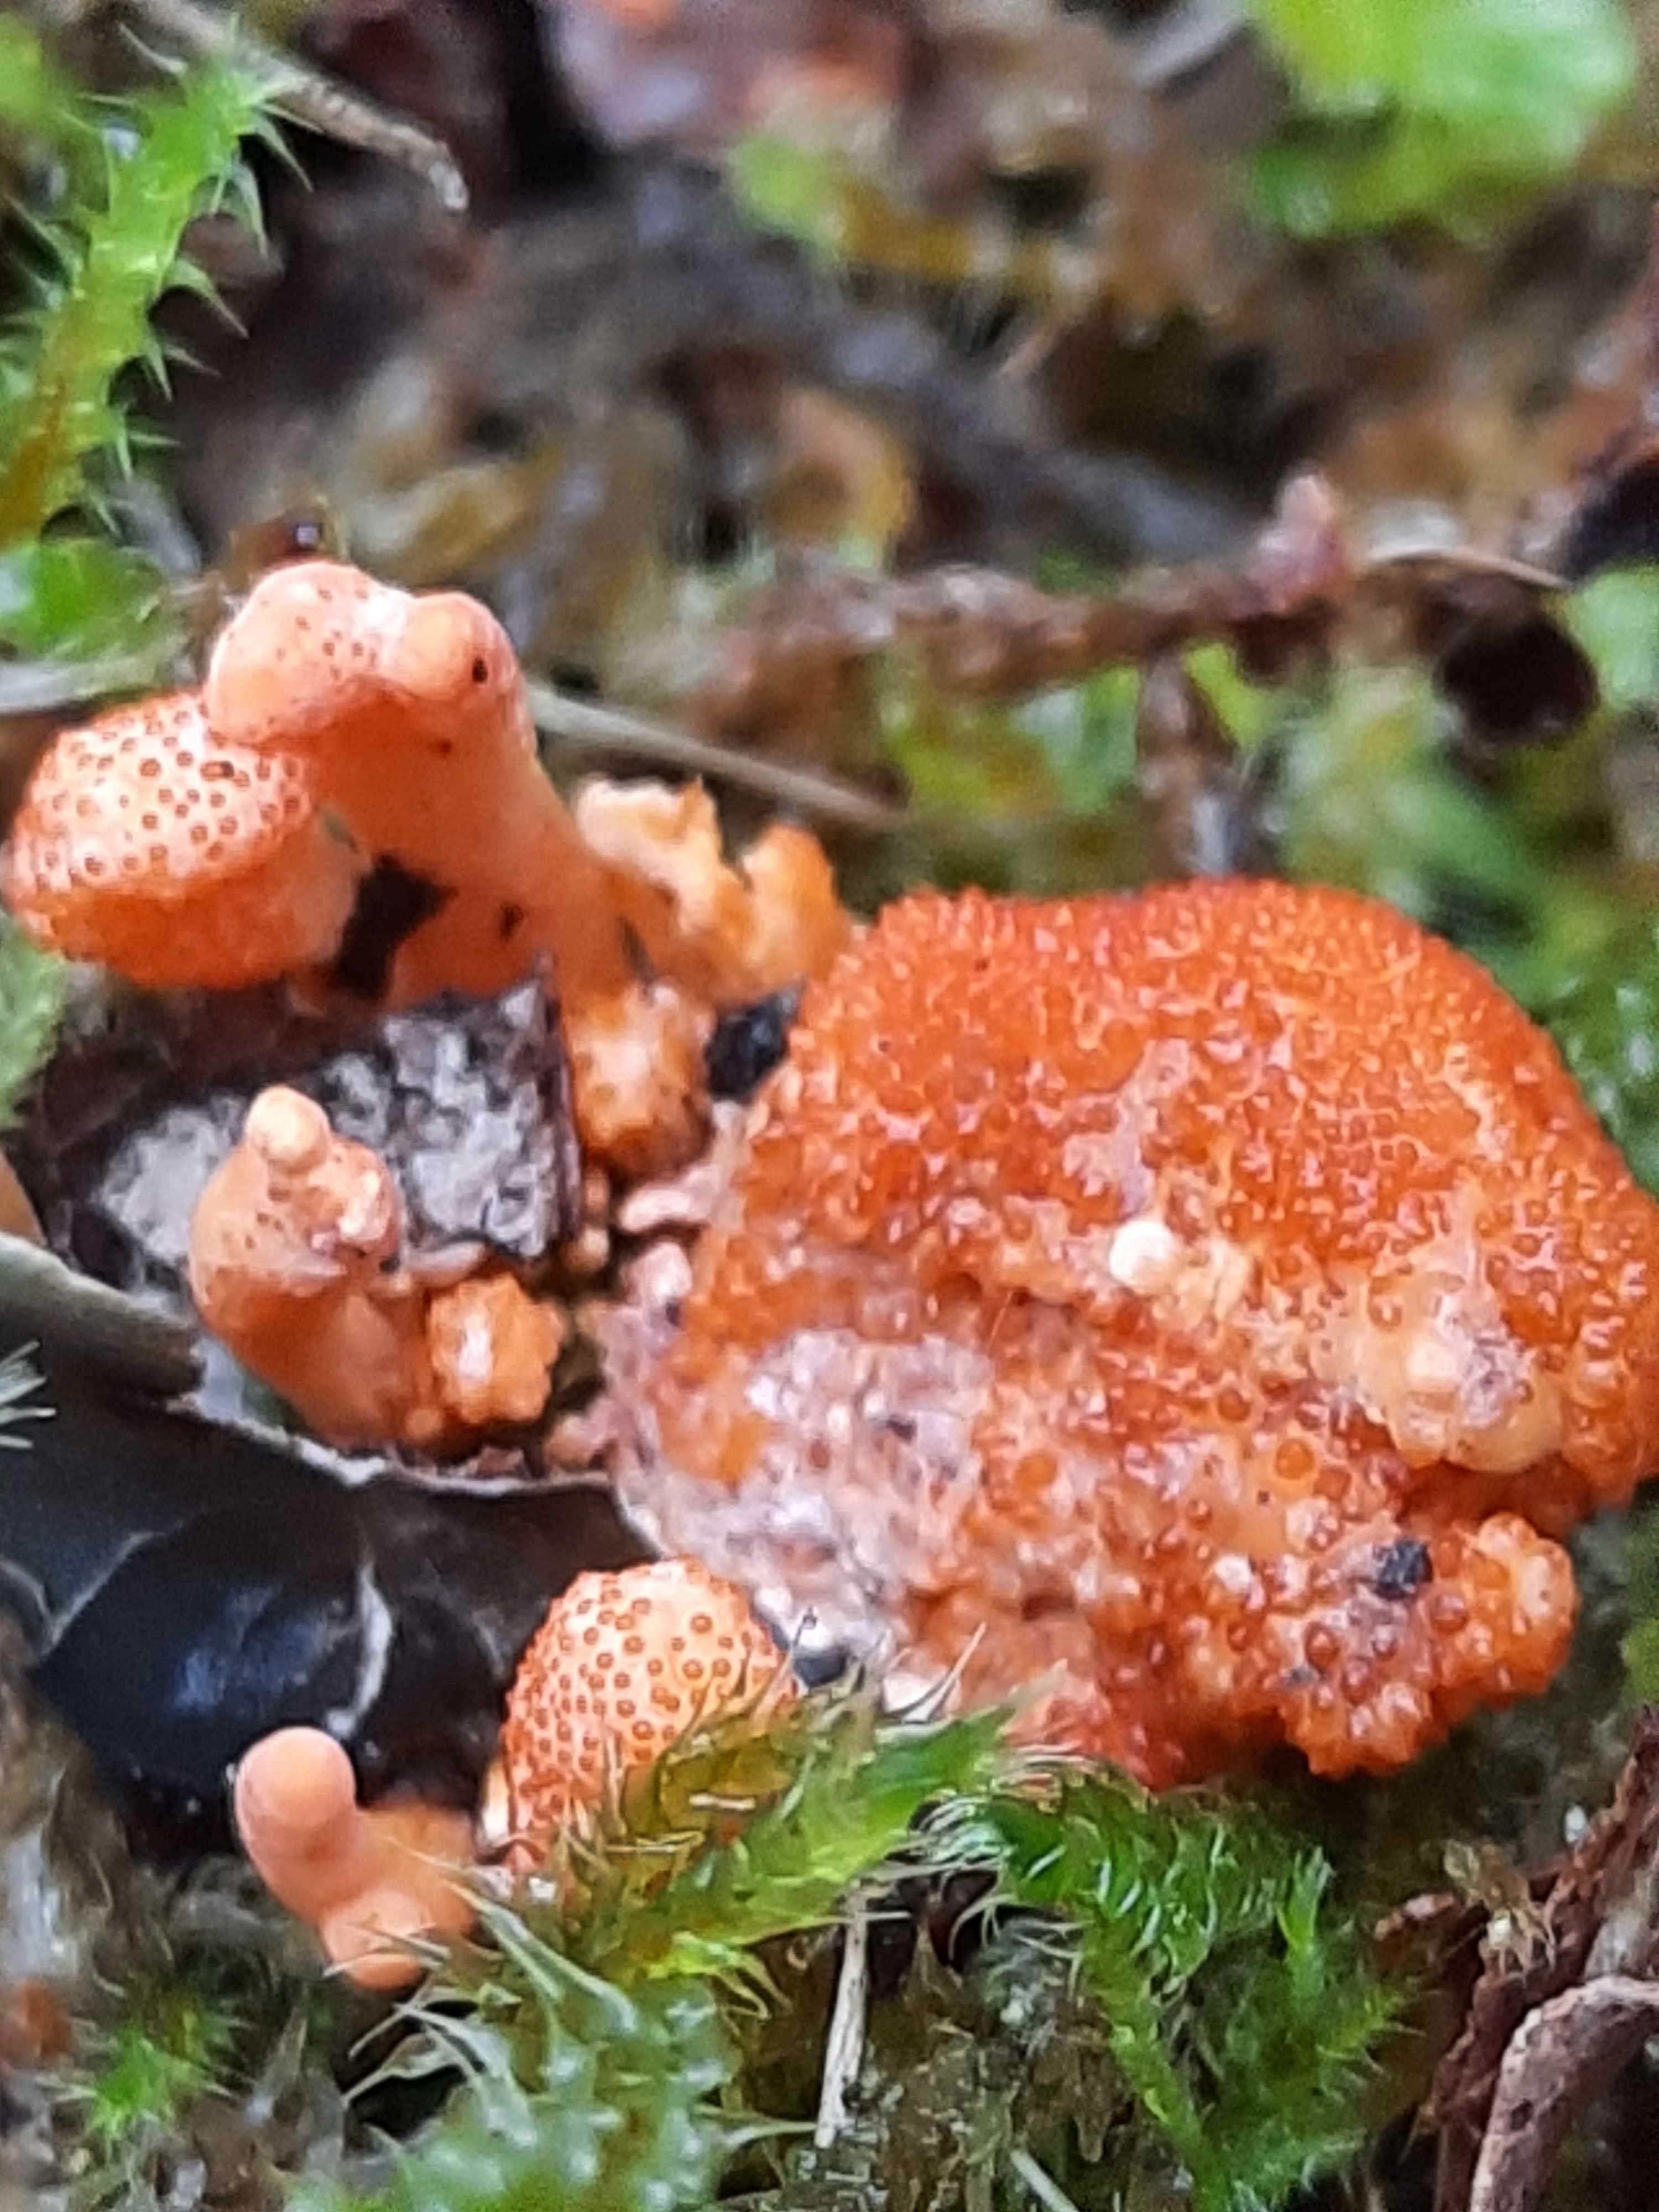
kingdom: Fungi
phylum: Ascomycota
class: Sordariomycetes
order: Hypocreales
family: Cordycipitaceae
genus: Cordyceps
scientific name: Cordyceps militaris
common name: puppe-snyltekølle
